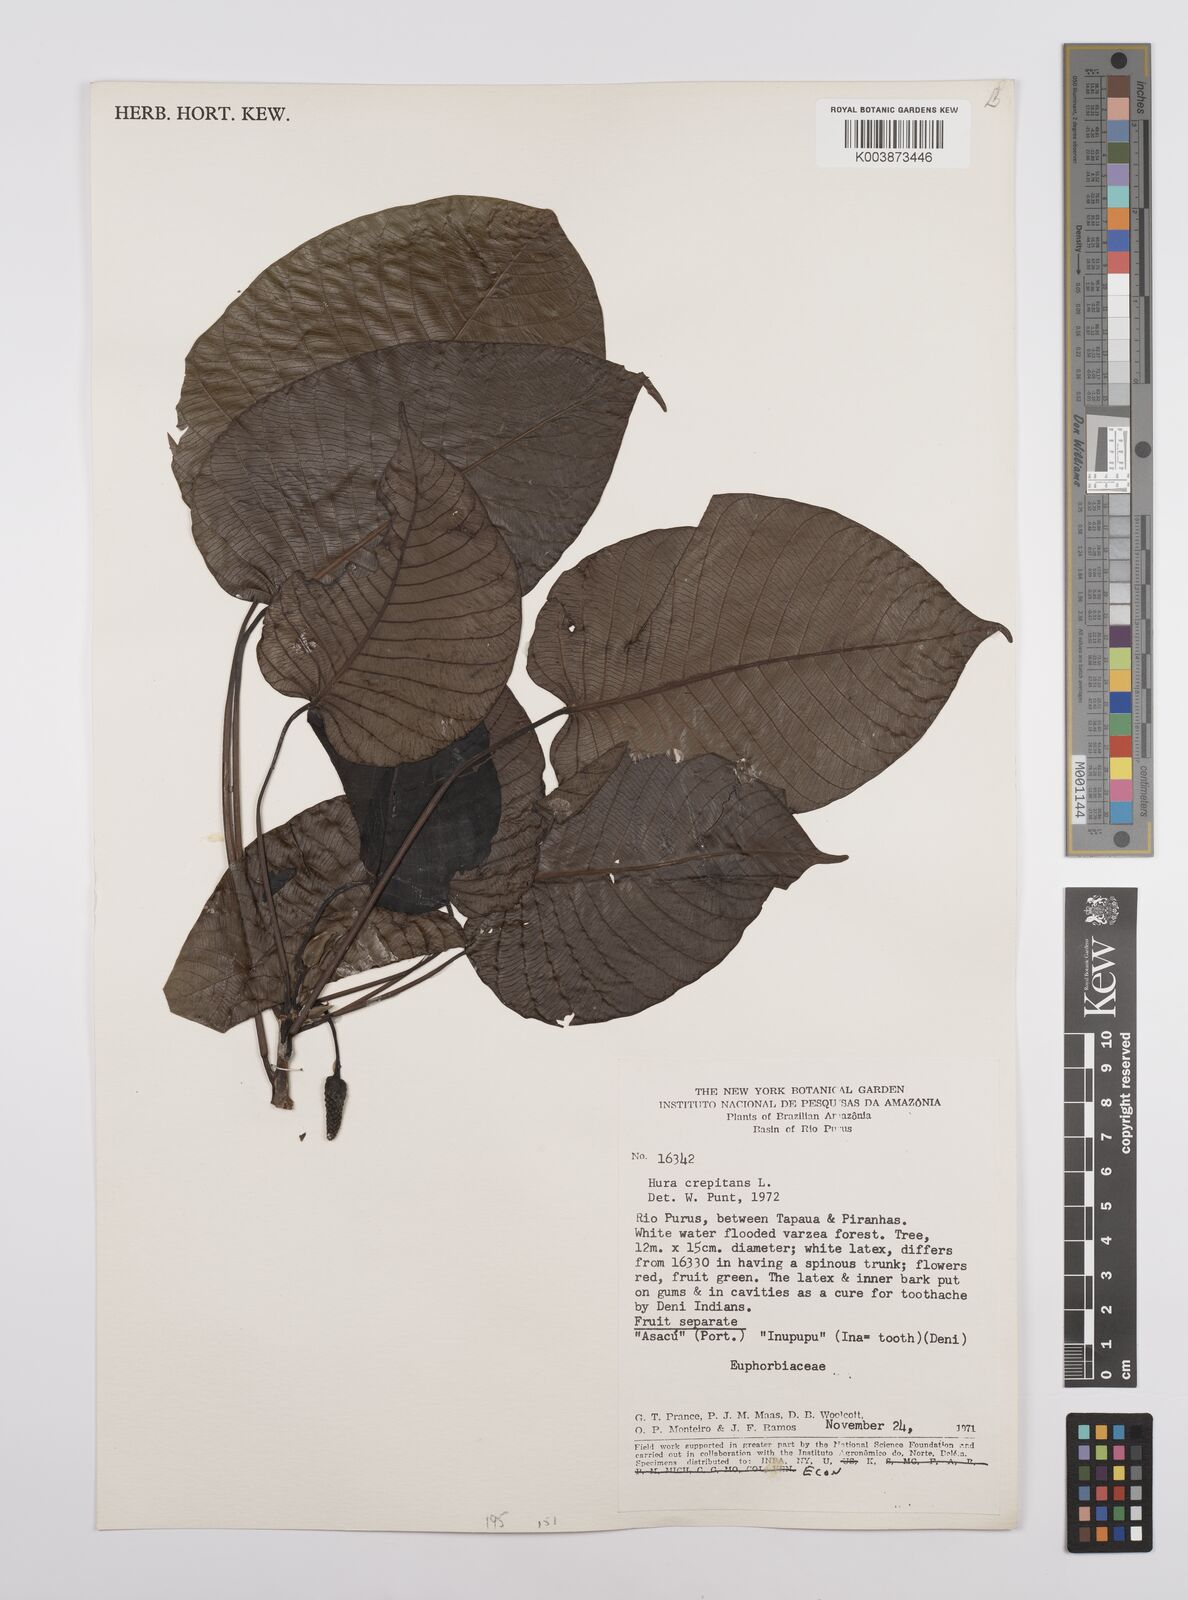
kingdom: Plantae
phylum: Tracheophyta
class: Magnoliopsida
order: Malpighiales
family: Euphorbiaceae
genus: Hura
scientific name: Hura crepitans
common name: Sandboxtree
